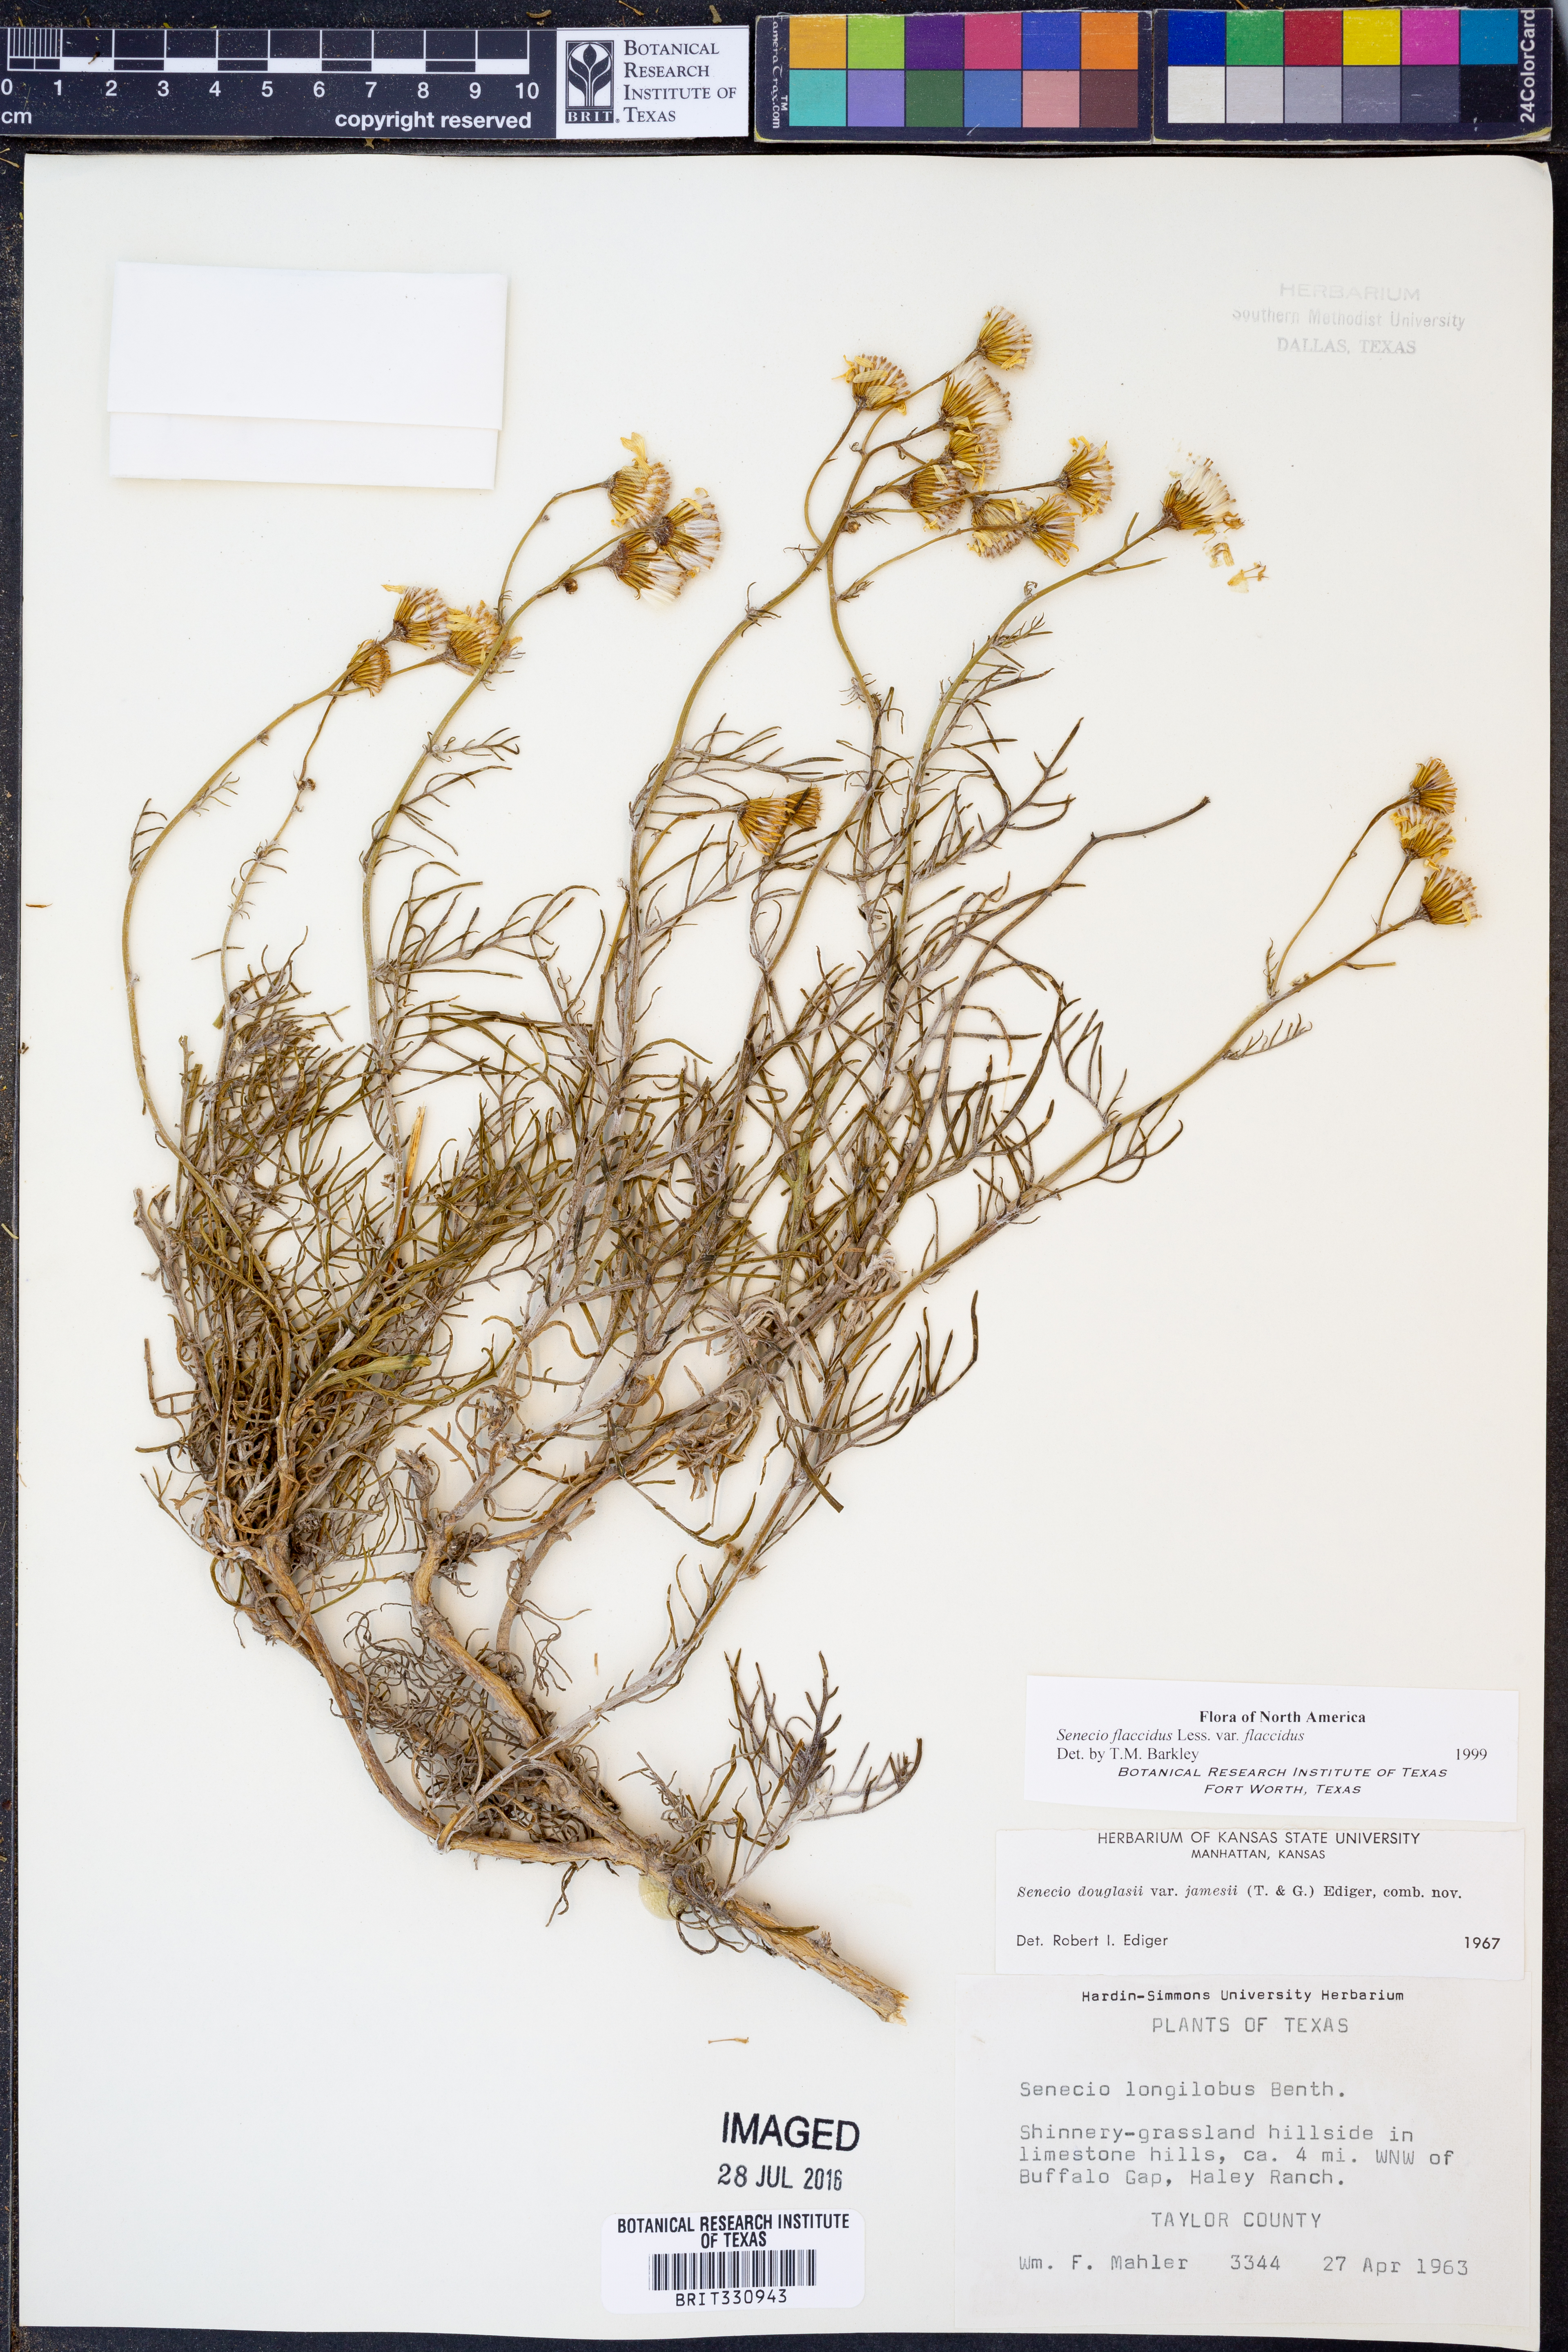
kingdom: Plantae
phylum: Tracheophyta
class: Magnoliopsida
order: Asterales
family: Asteraceae
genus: Senecio
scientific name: Senecio flaccidus
